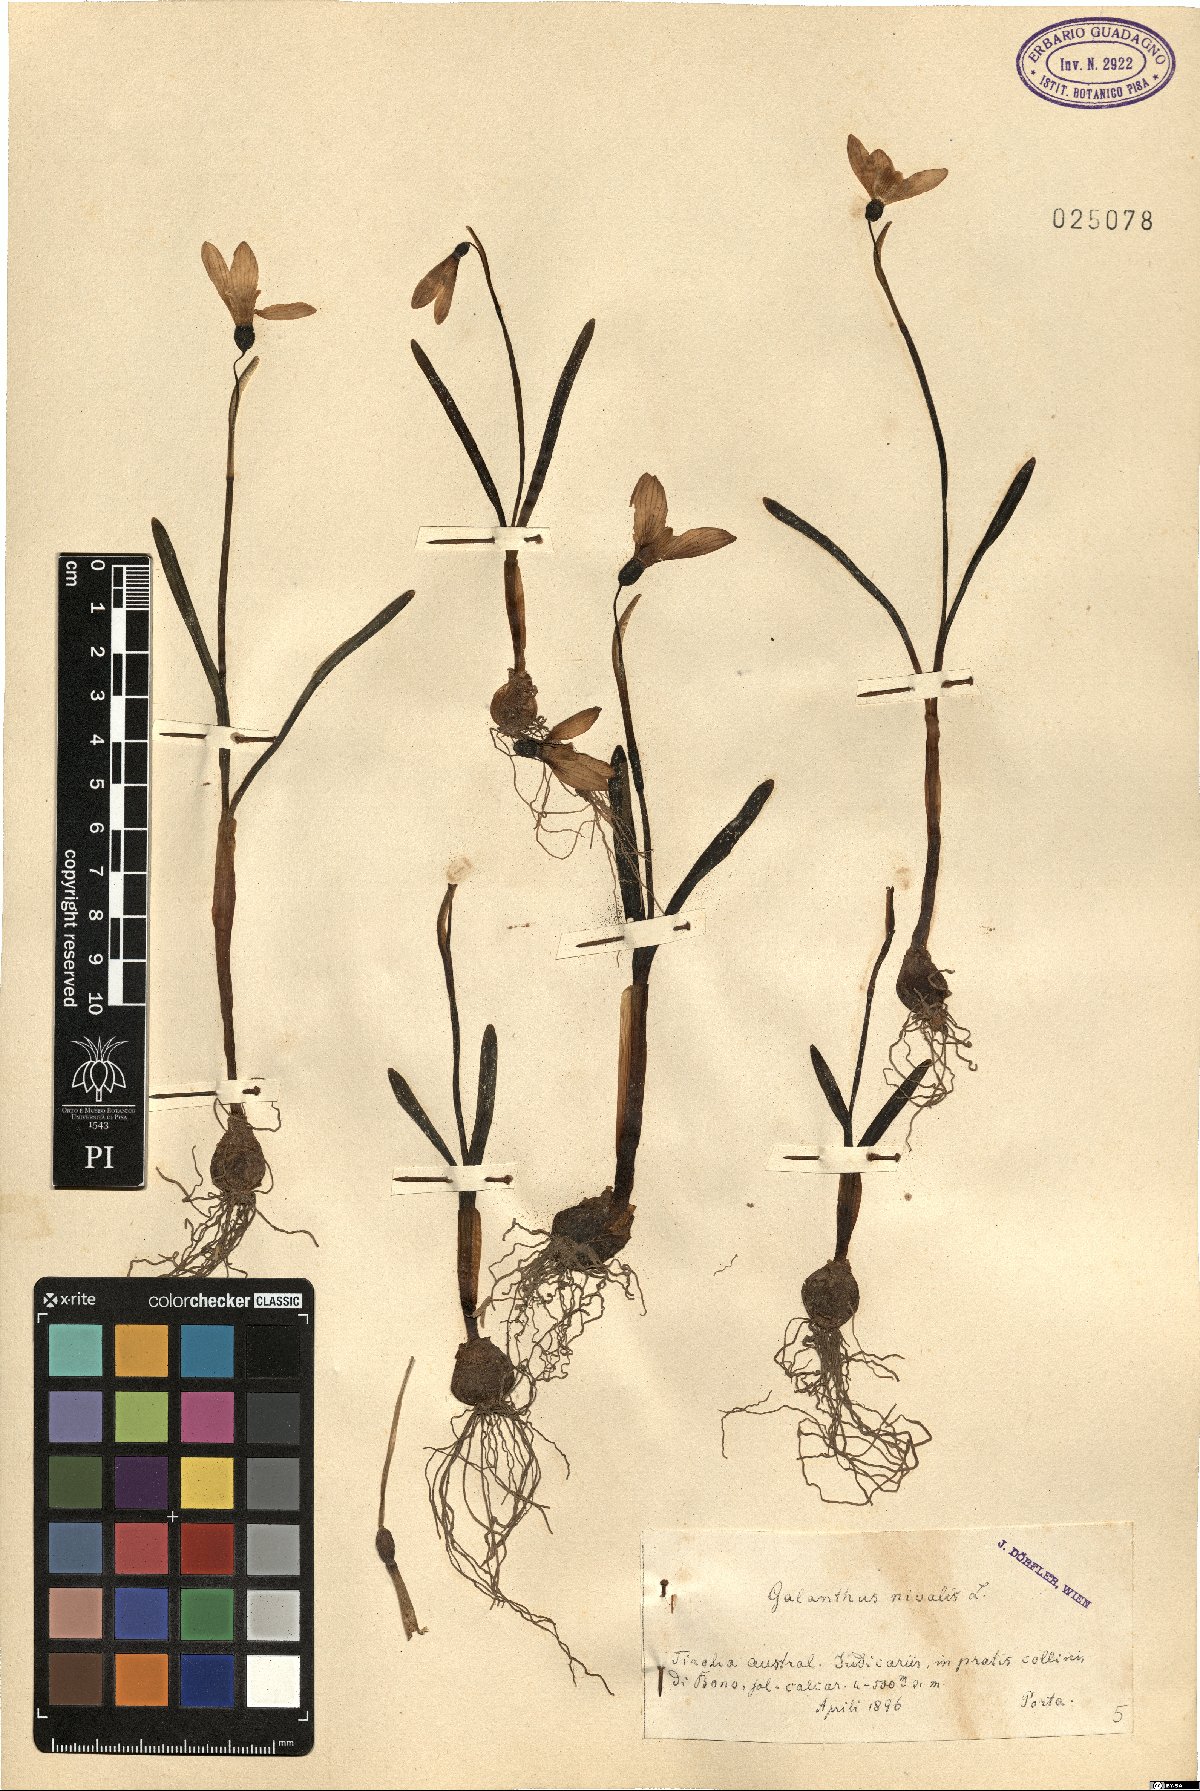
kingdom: Plantae
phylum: Tracheophyta
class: Liliopsida
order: Asparagales
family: Amaryllidaceae
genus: Galanthus
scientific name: Galanthus nivalis
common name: Snowdrop
